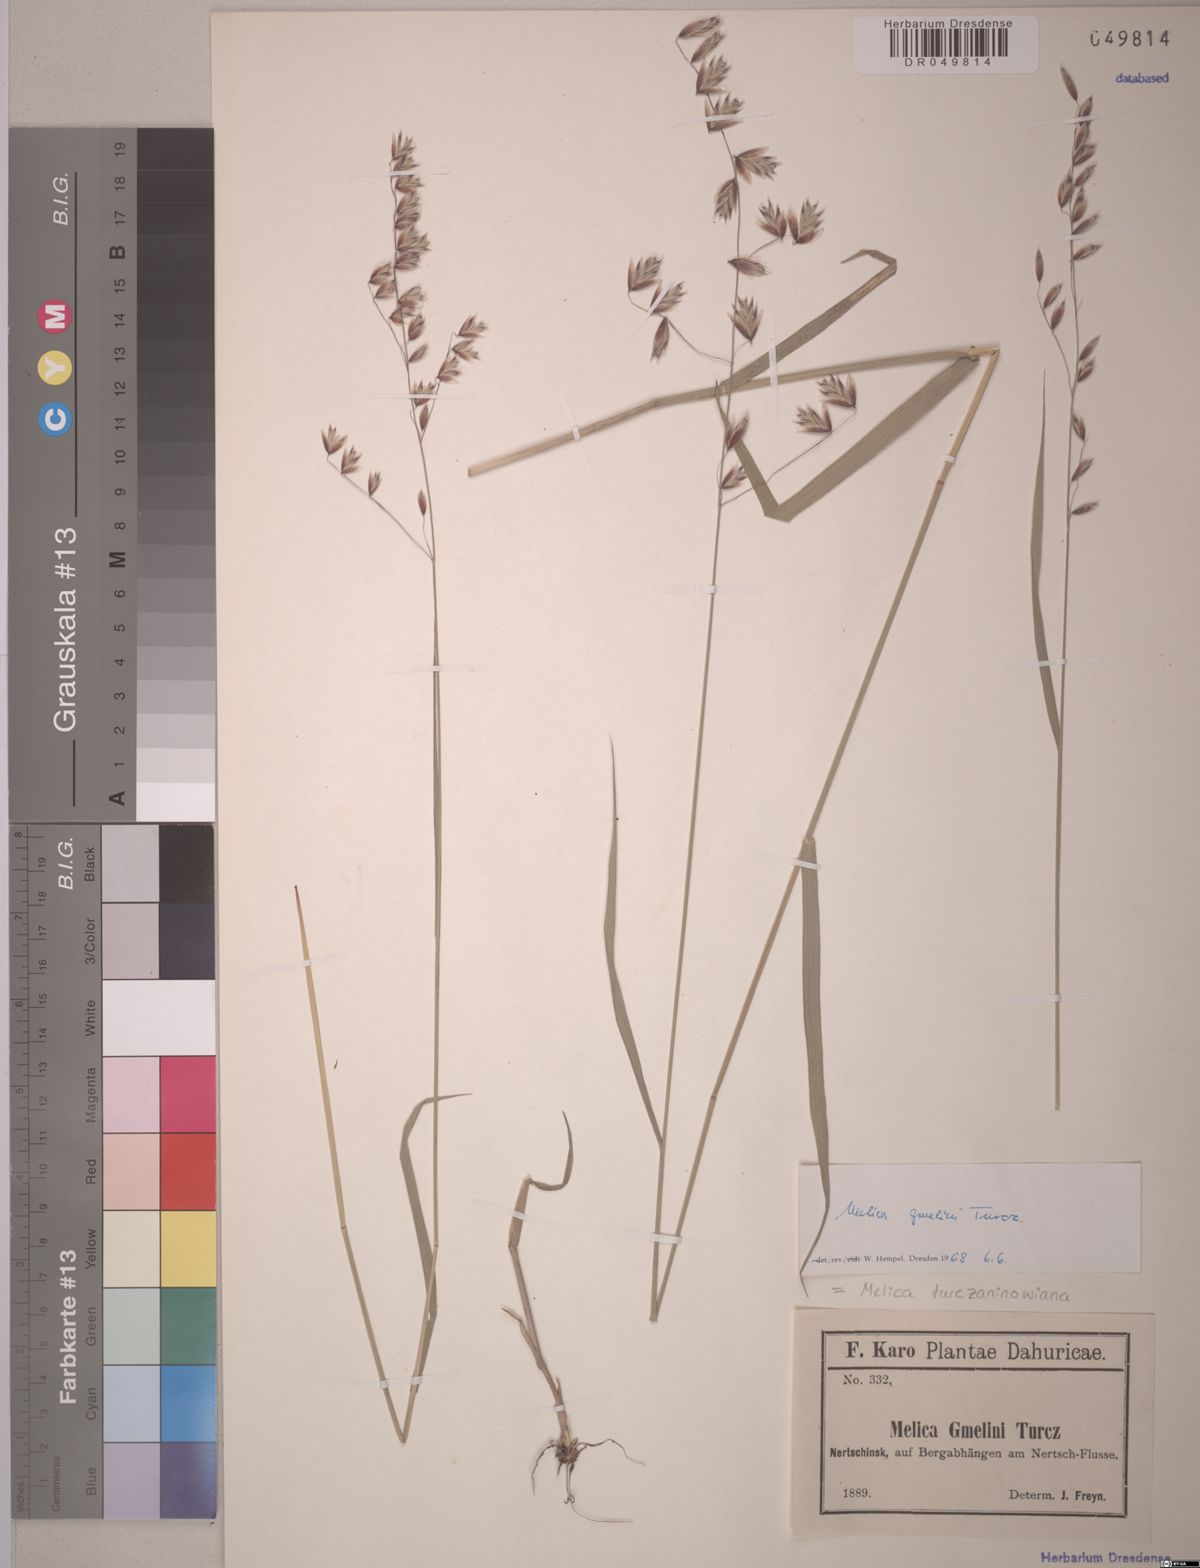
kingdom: Plantae
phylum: Tracheophyta
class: Liliopsida
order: Poales
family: Poaceae
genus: Melica
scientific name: Melica turczaninowiana
